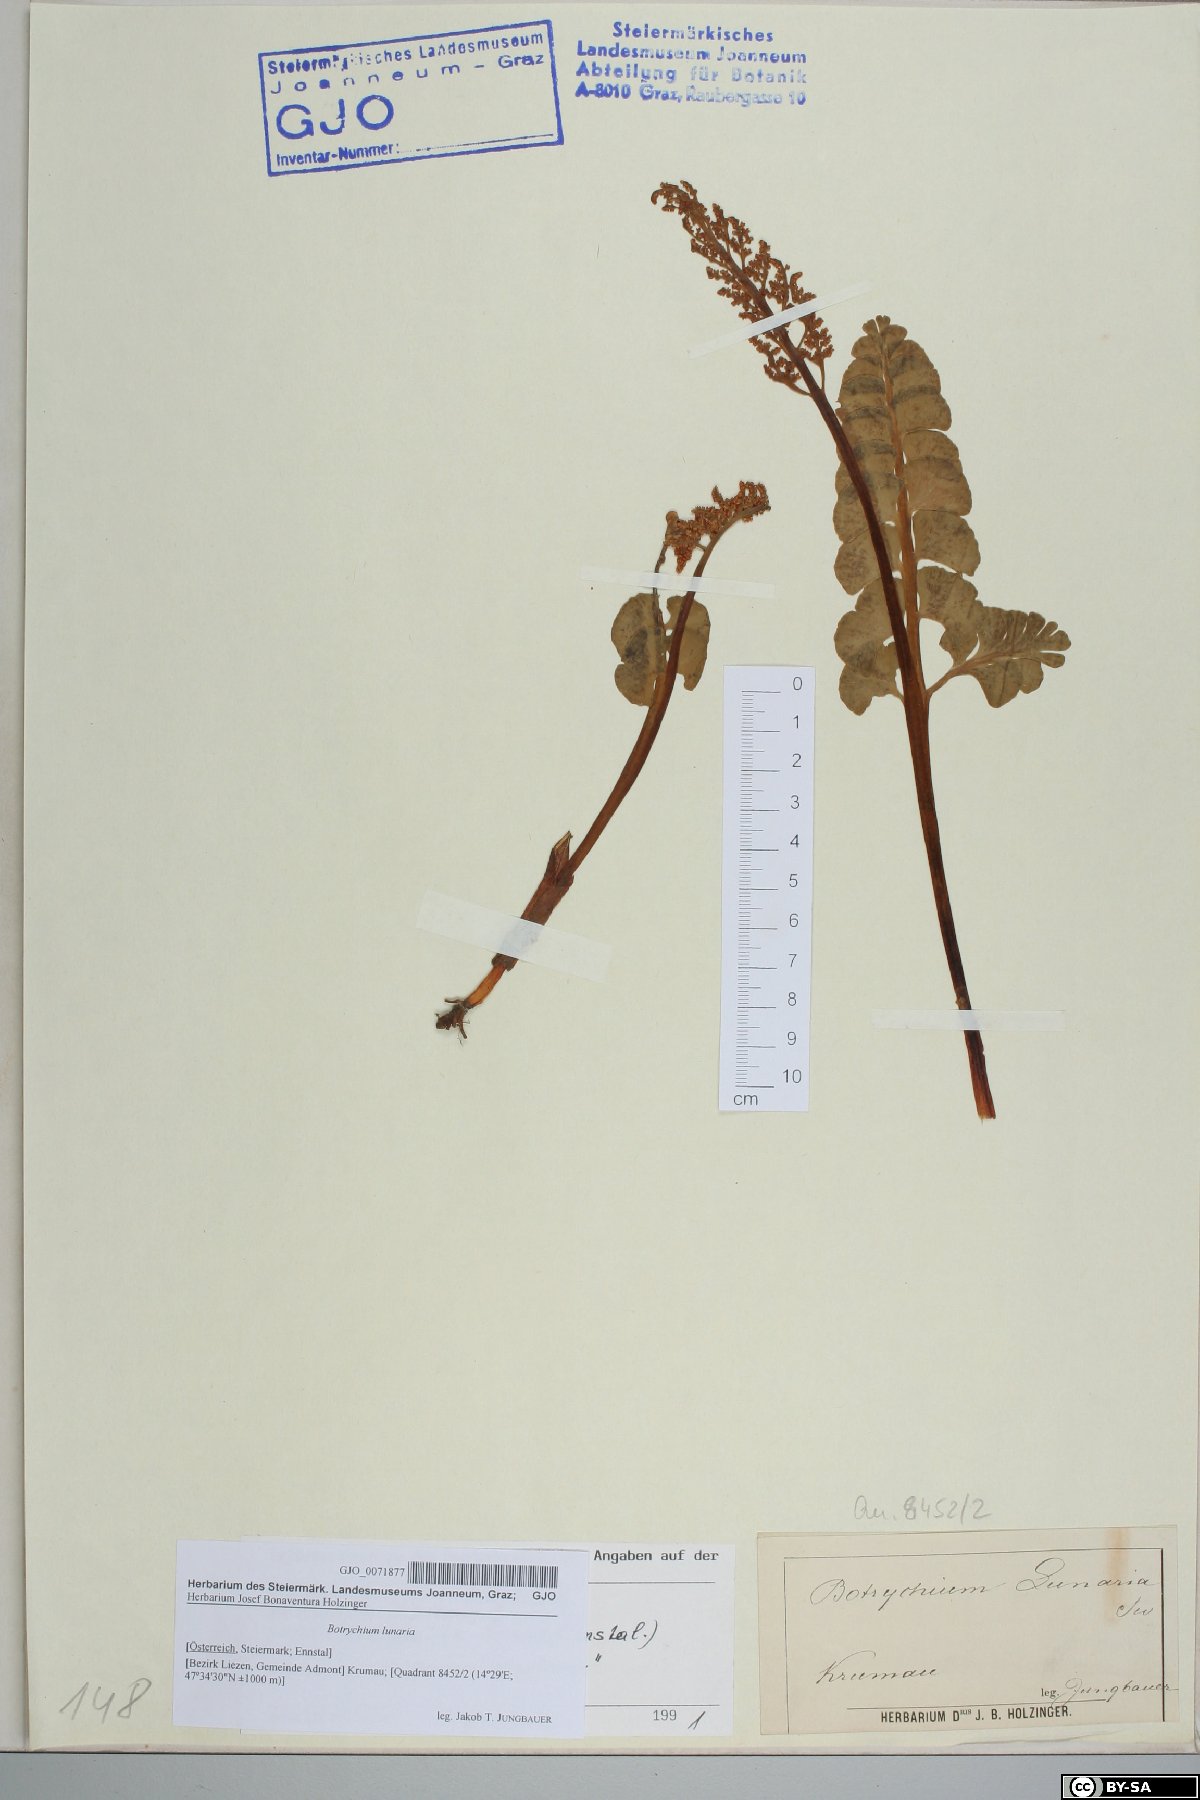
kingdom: Plantae
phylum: Tracheophyta
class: Polypodiopsida
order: Ophioglossales
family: Ophioglossaceae
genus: Botrychium
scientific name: Botrychium lunaria
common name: Moonwort
